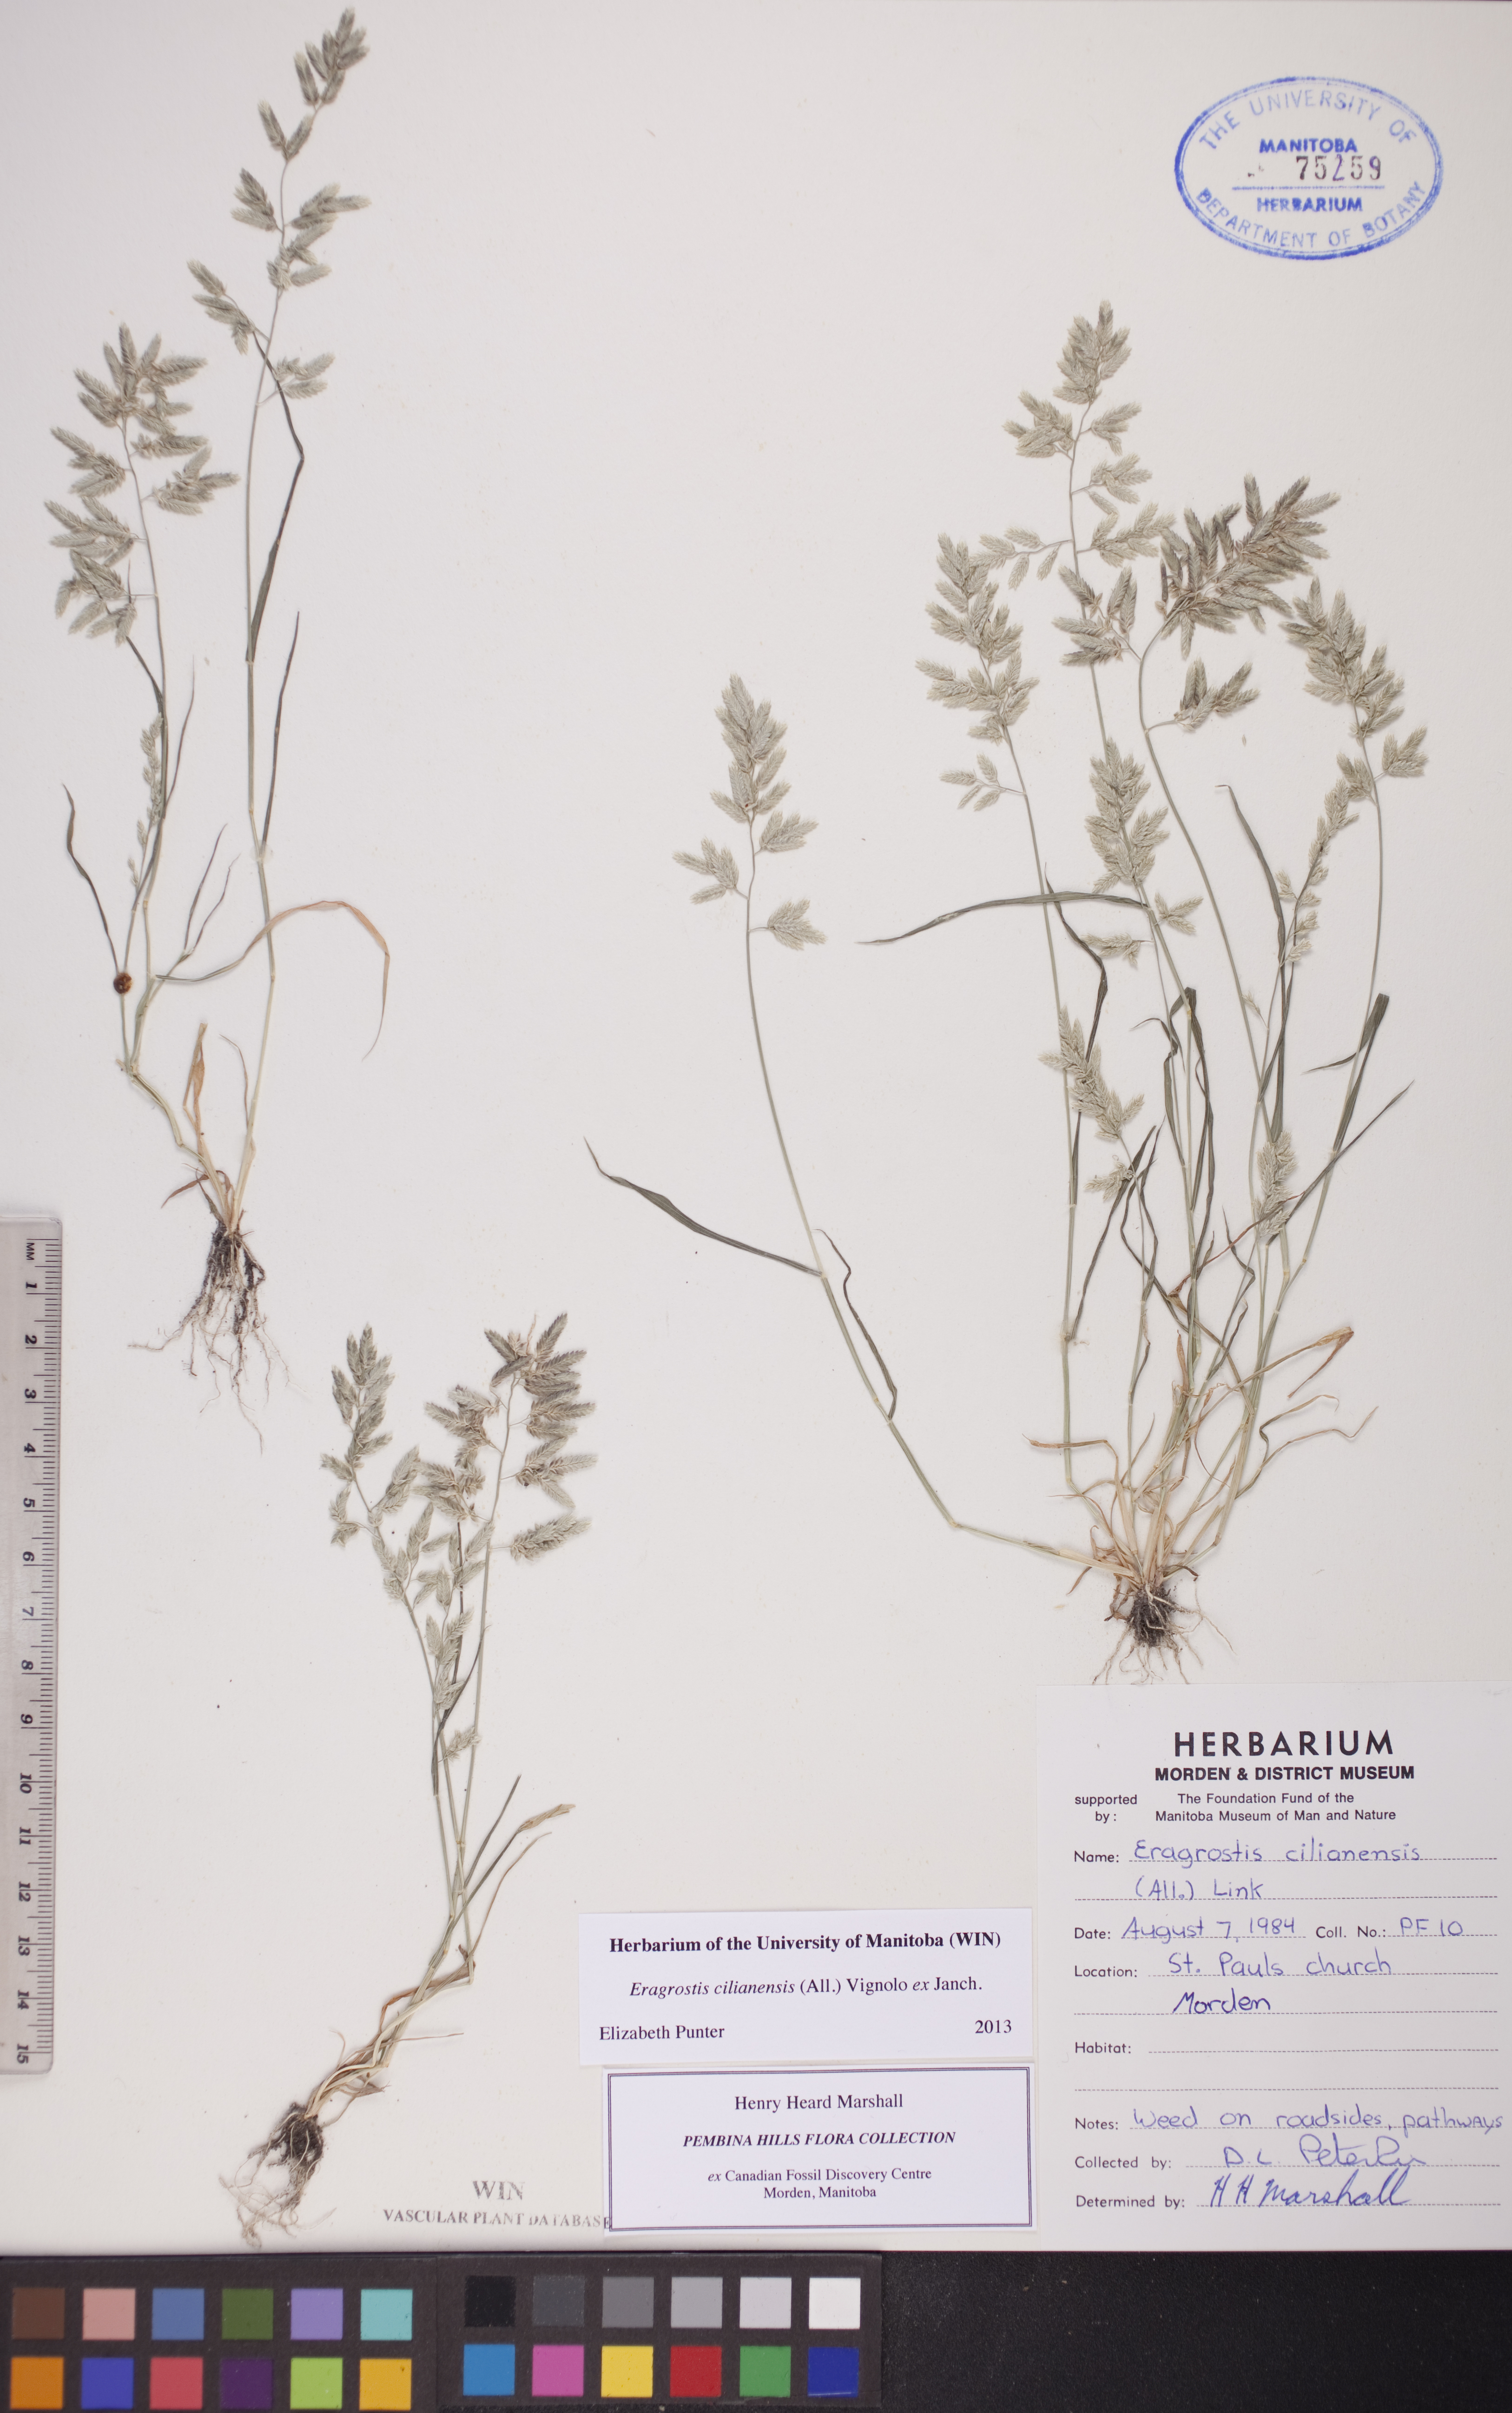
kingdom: Plantae
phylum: Tracheophyta
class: Liliopsida
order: Poales
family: Poaceae
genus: Eragrostis
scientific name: Eragrostis cilianensis
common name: Stinkgrass
